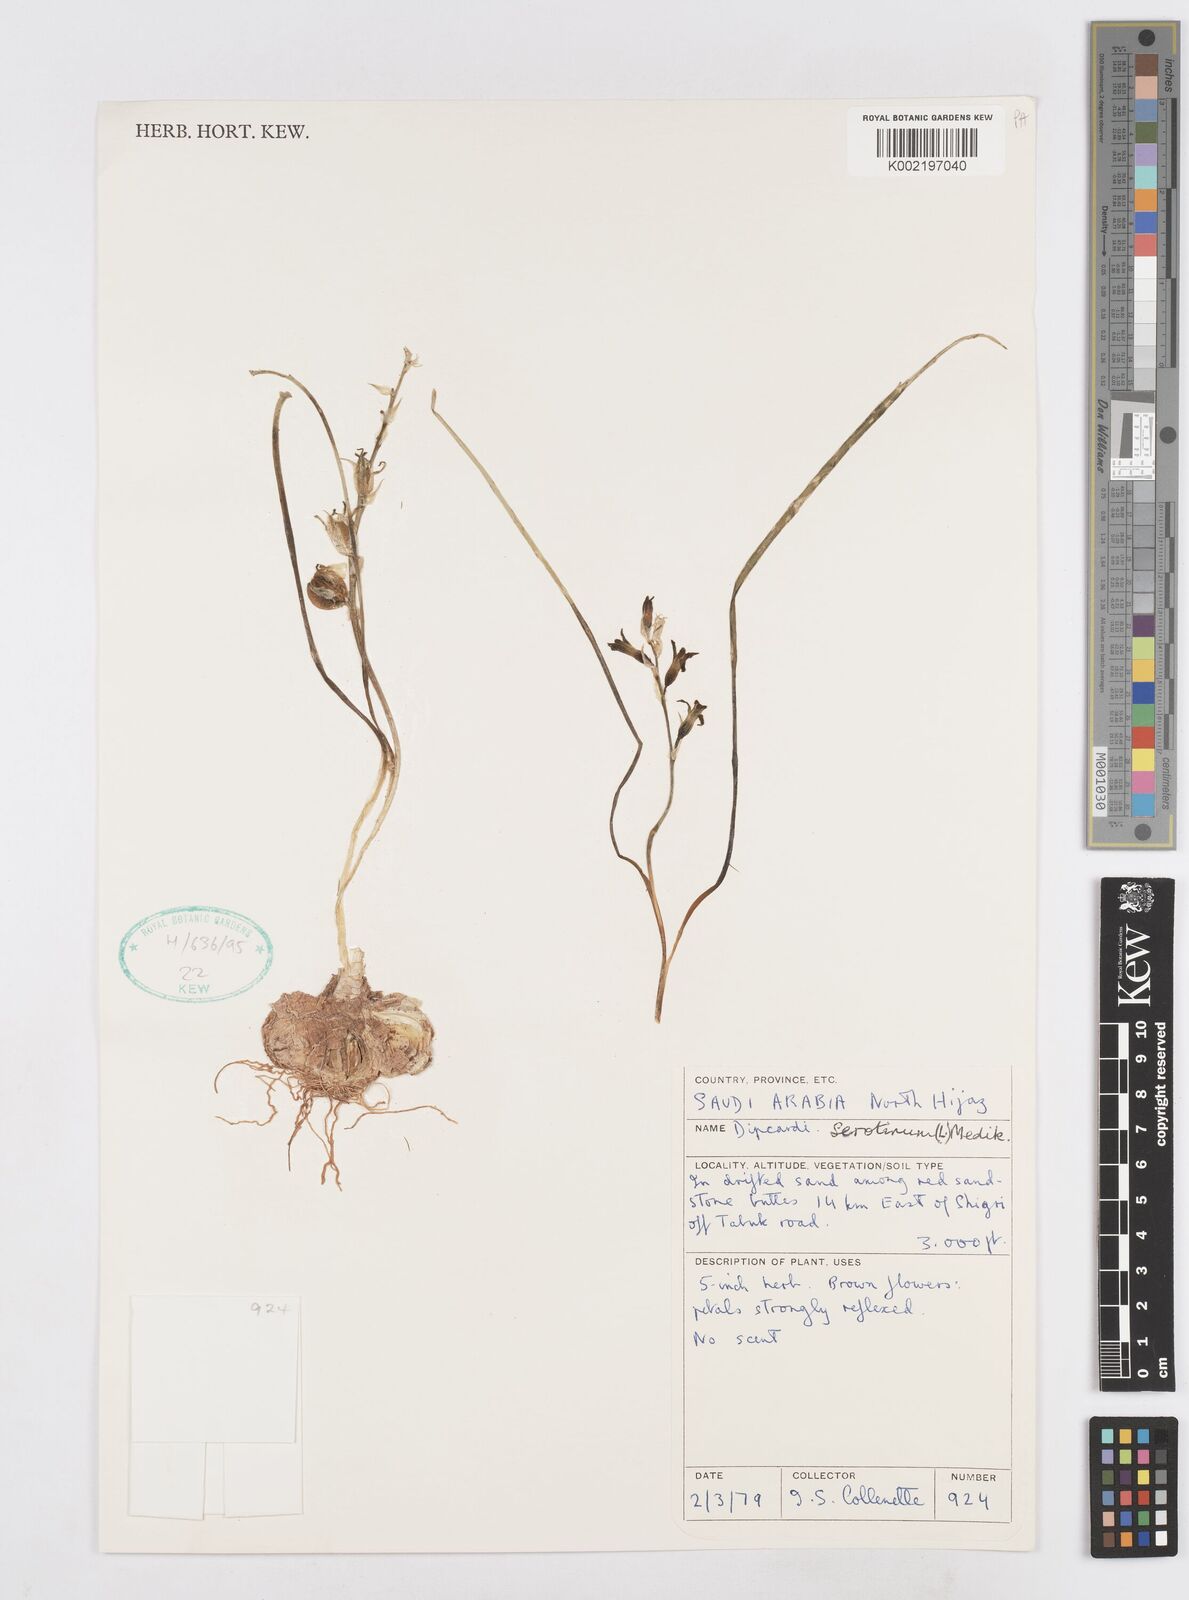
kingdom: Plantae
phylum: Tracheophyta
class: Liliopsida
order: Asparagales
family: Asparagaceae
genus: Dipcadi
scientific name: Dipcadi serotinum
